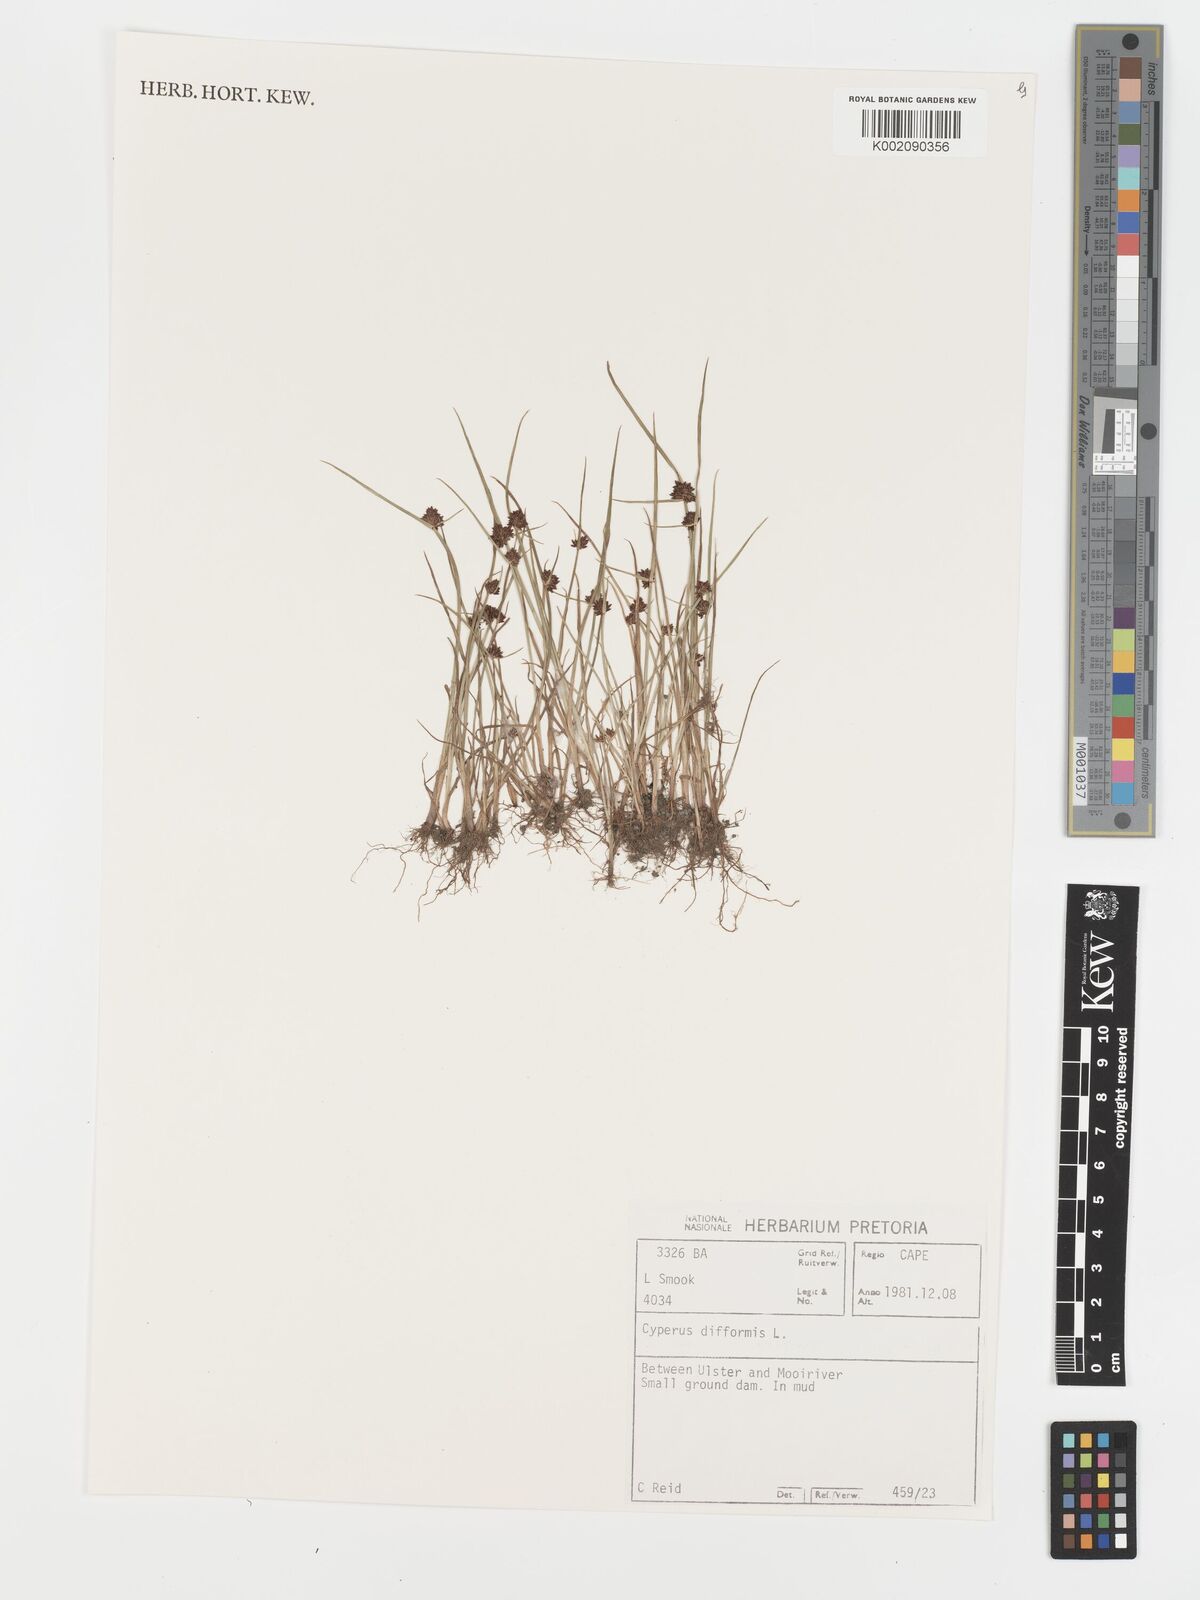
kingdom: Plantae
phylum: Tracheophyta
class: Liliopsida
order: Poales
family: Cyperaceae
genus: Cyperus
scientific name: Cyperus difformis
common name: Variable flatsedge
